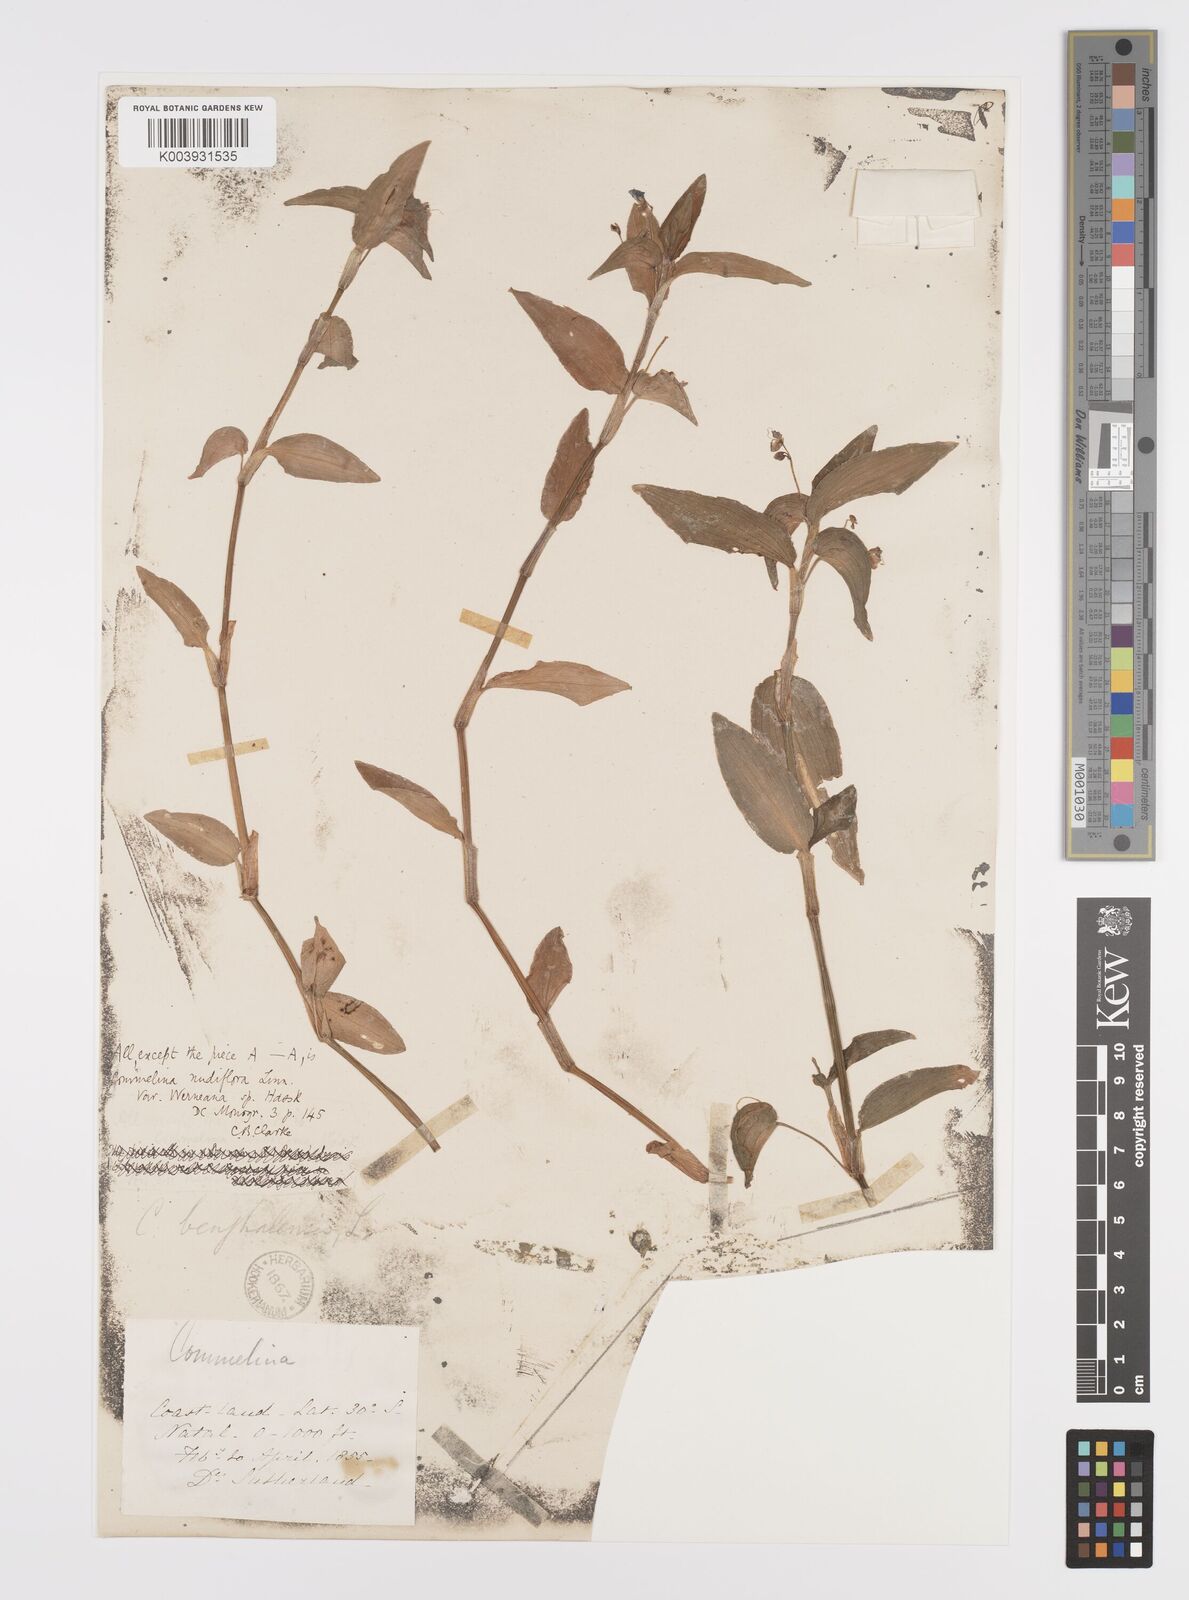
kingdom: Plantae
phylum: Tracheophyta
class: Liliopsida
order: Commelinales
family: Commelinaceae
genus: Commelina
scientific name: Commelina diffusa
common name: Climbing dayflower
